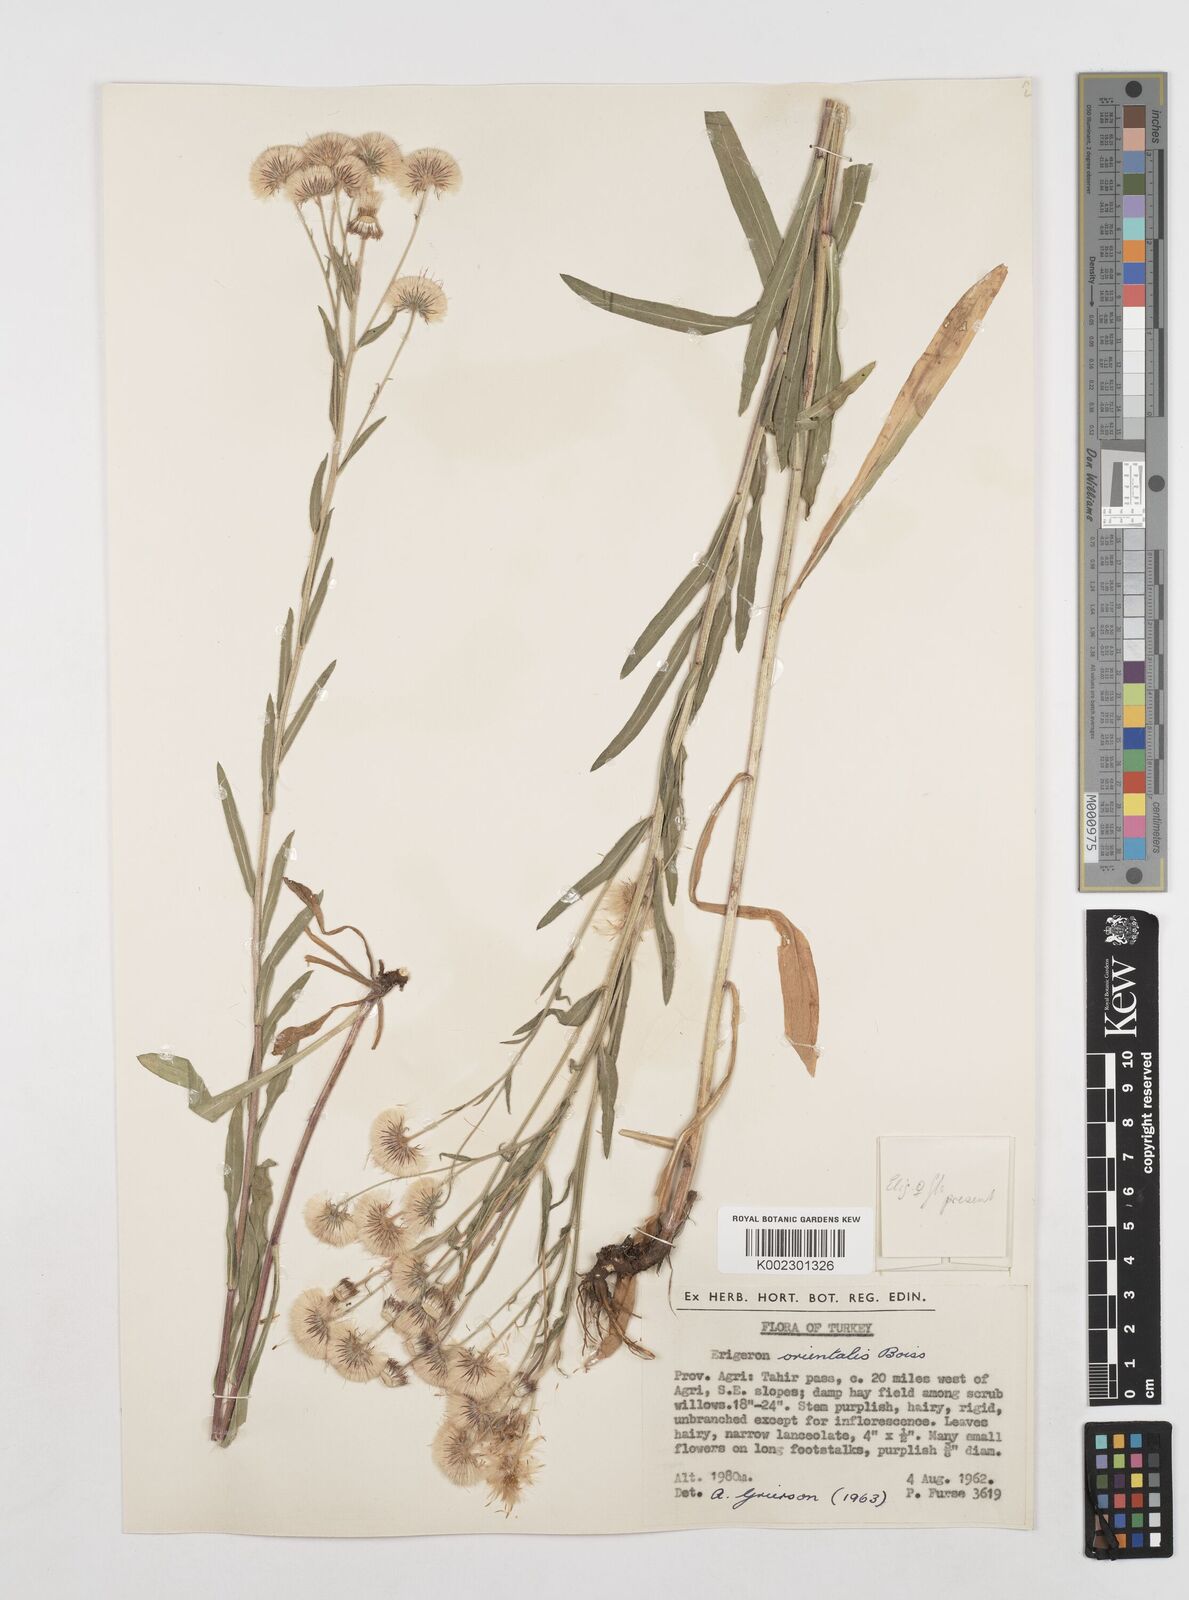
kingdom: Plantae
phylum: Tracheophyta
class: Magnoliopsida
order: Asterales
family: Asteraceae
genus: Erigeron
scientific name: Erigeron acris
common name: Blue fleabane
